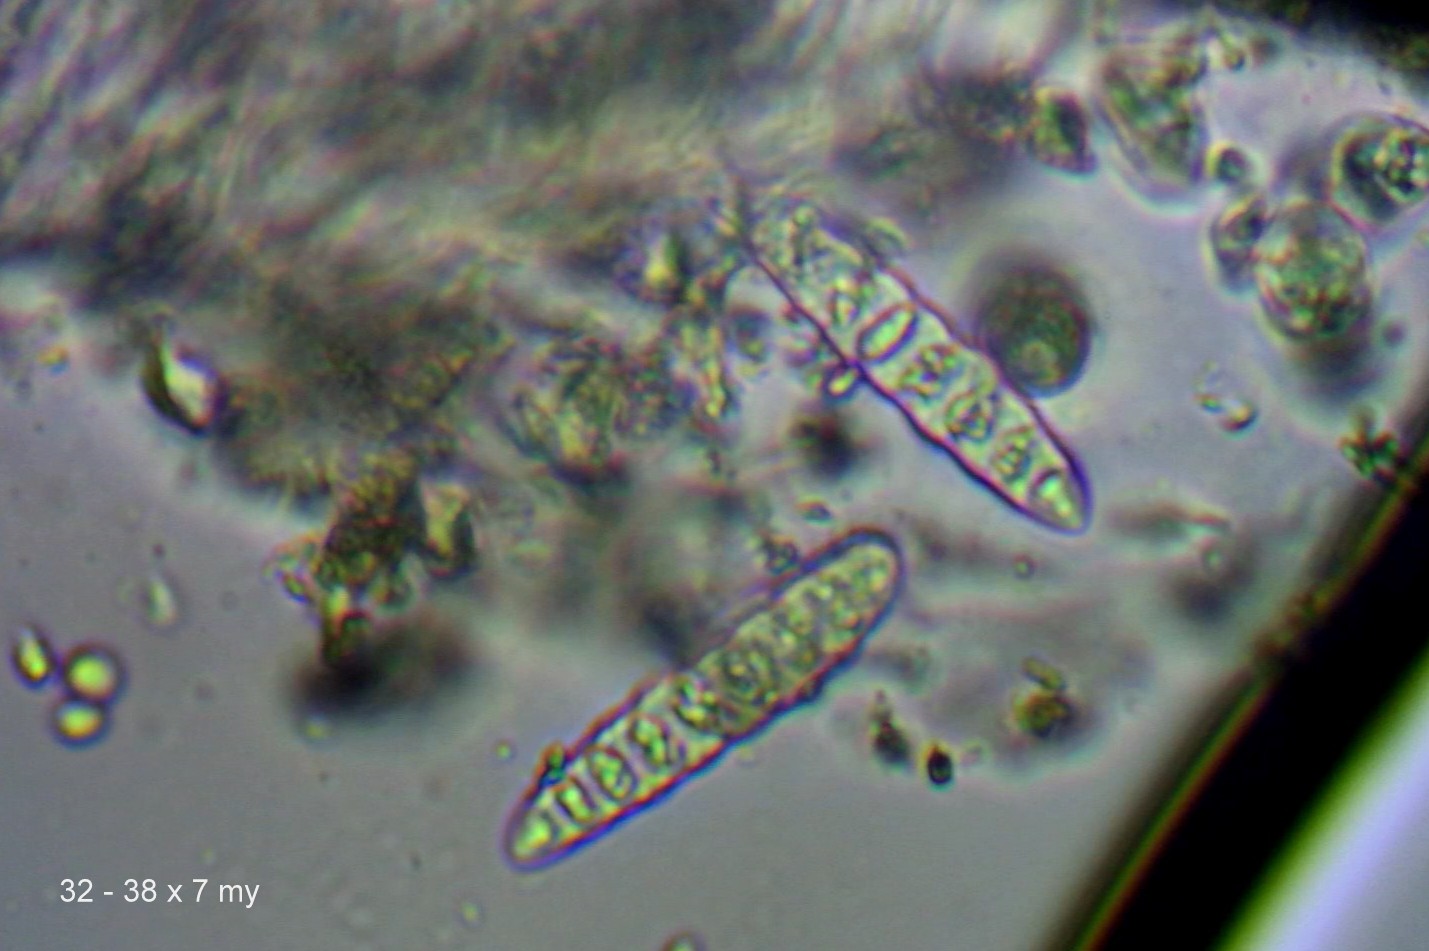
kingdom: Fungi
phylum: Ascomycota
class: Lecanoromycetes
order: Ostropales
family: Graphidaceae
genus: Graphis
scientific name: Graphis scripta
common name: almindelig skriftlav
